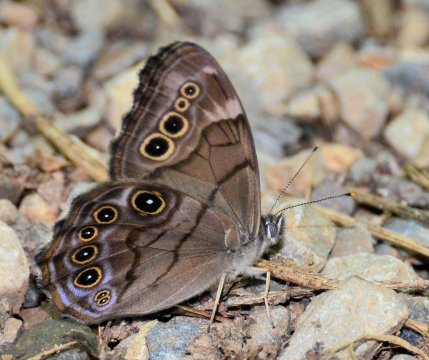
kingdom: Animalia
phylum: Arthropoda
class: Insecta
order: Lepidoptera
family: Nymphalidae
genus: Lethe
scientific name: Lethe anthedon
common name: Northern Pearly-Eye
